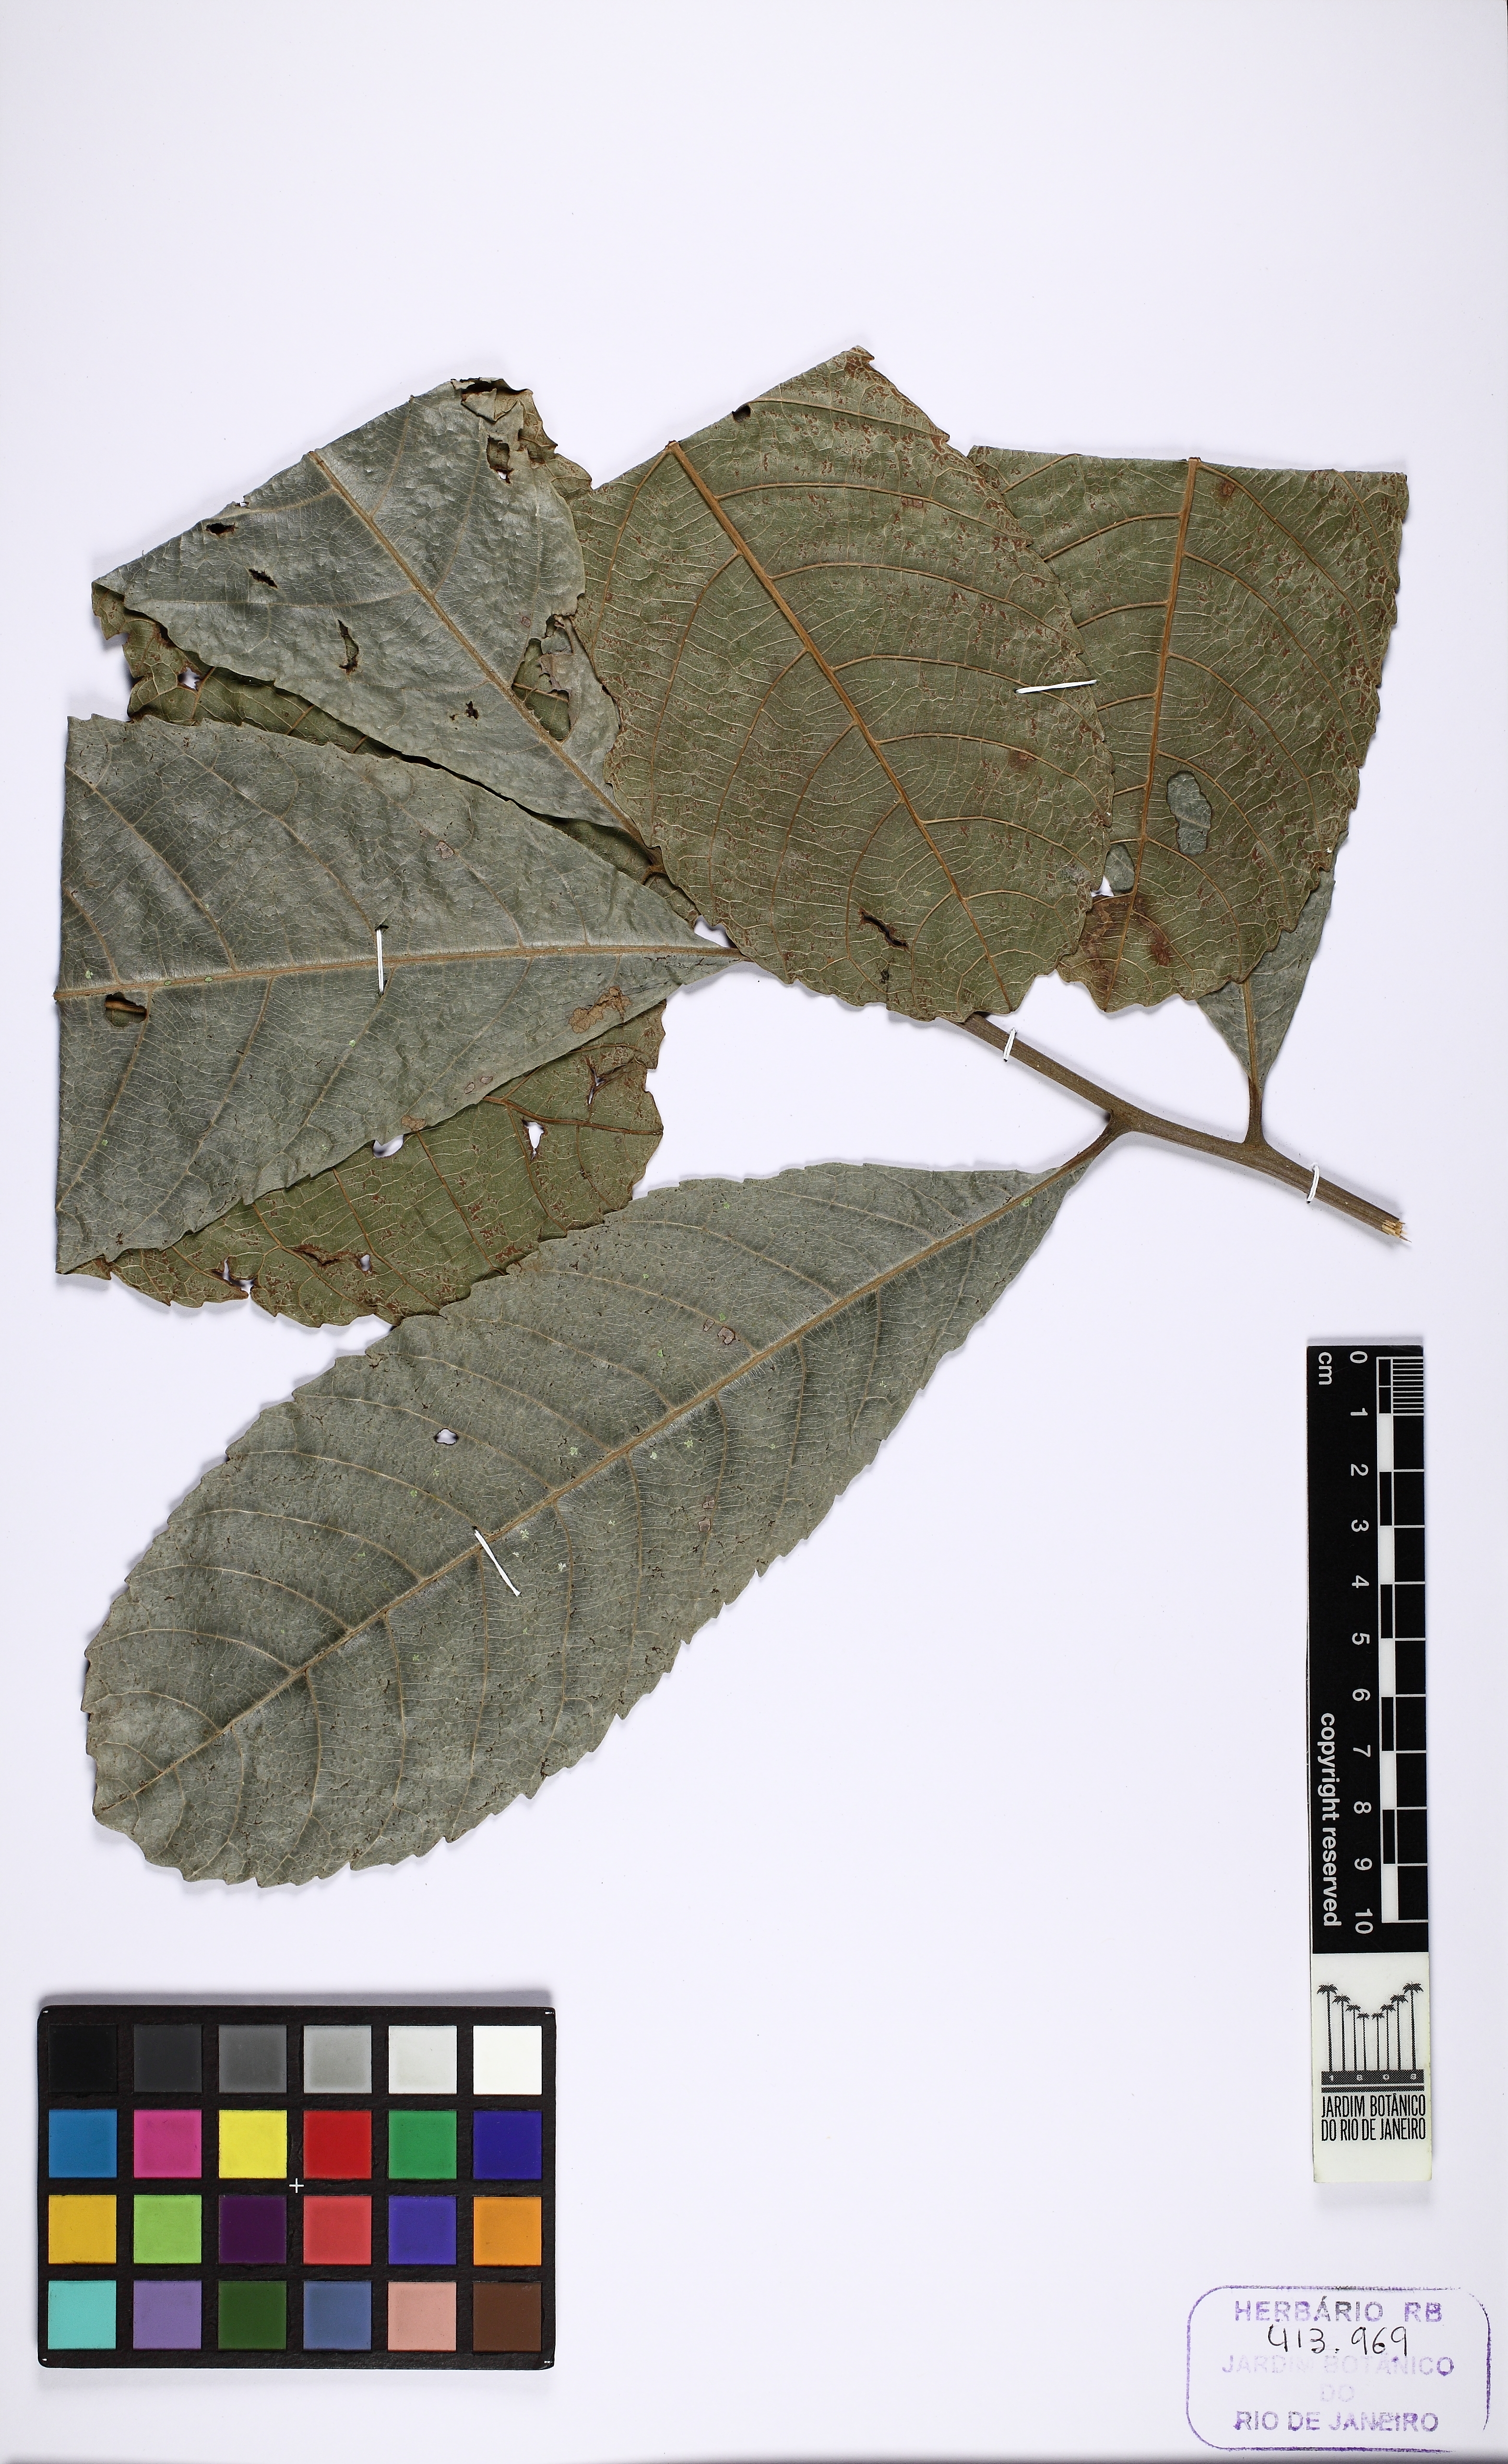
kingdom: Plantae
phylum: Tracheophyta
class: Magnoliopsida
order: Lamiales
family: Lamiaceae
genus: Aegiphila
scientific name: Aegiphila
